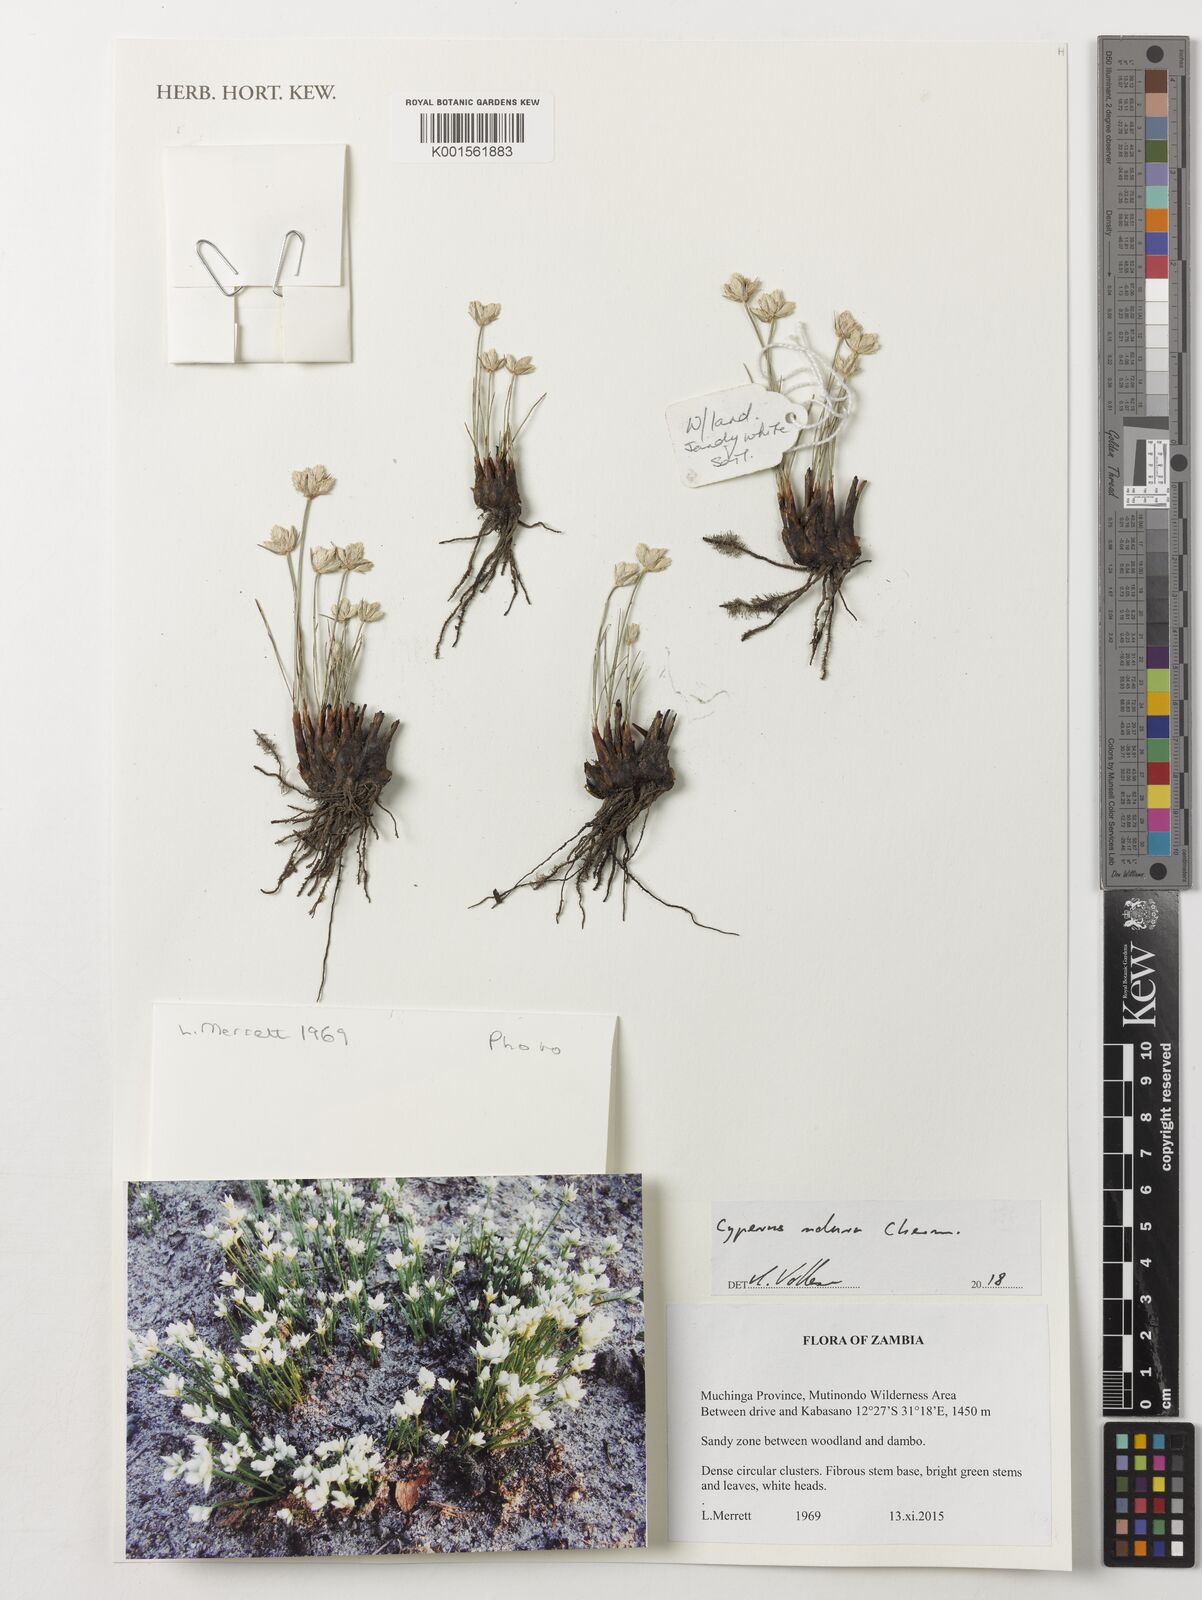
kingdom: Plantae
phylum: Tracheophyta
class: Liliopsida
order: Poales
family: Cyperaceae
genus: Cyperus
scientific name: Cyperus
